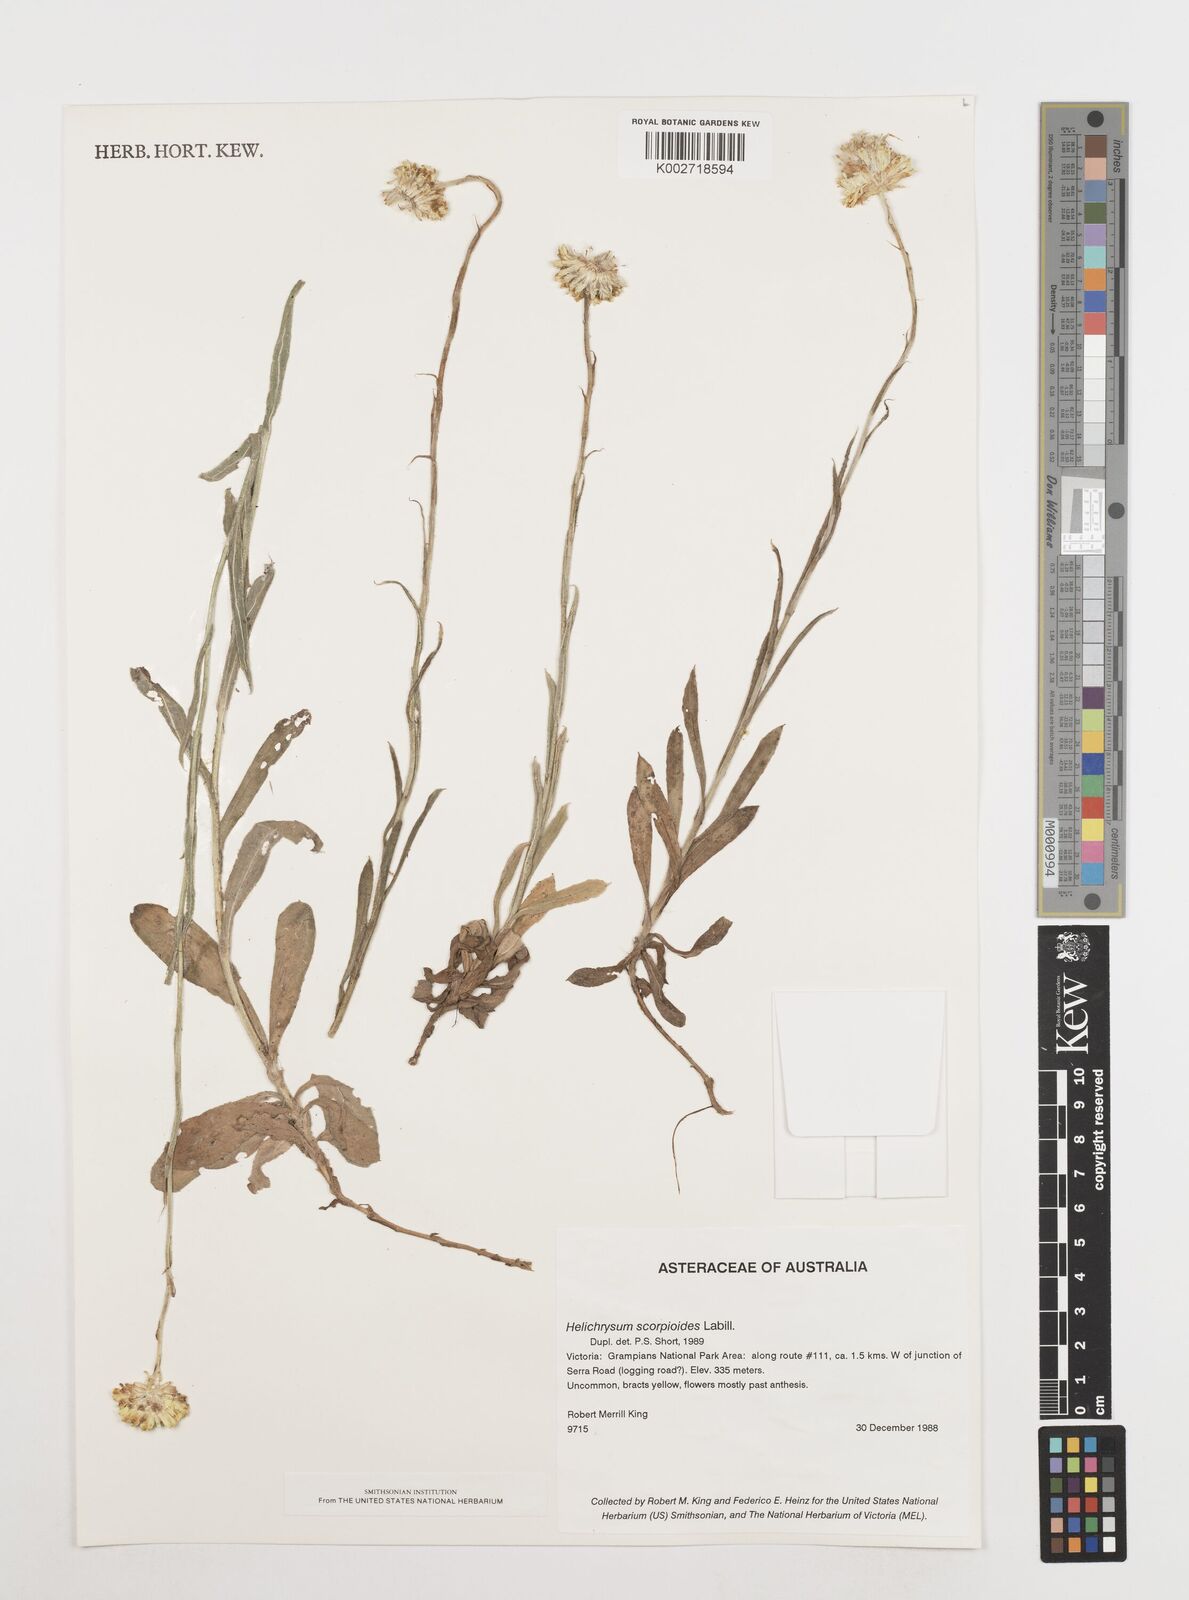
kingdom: Plantae
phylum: Tracheophyta
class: Magnoliopsida
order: Asterales
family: Asteraceae
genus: Coronidium
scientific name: Coronidium scorpioides
